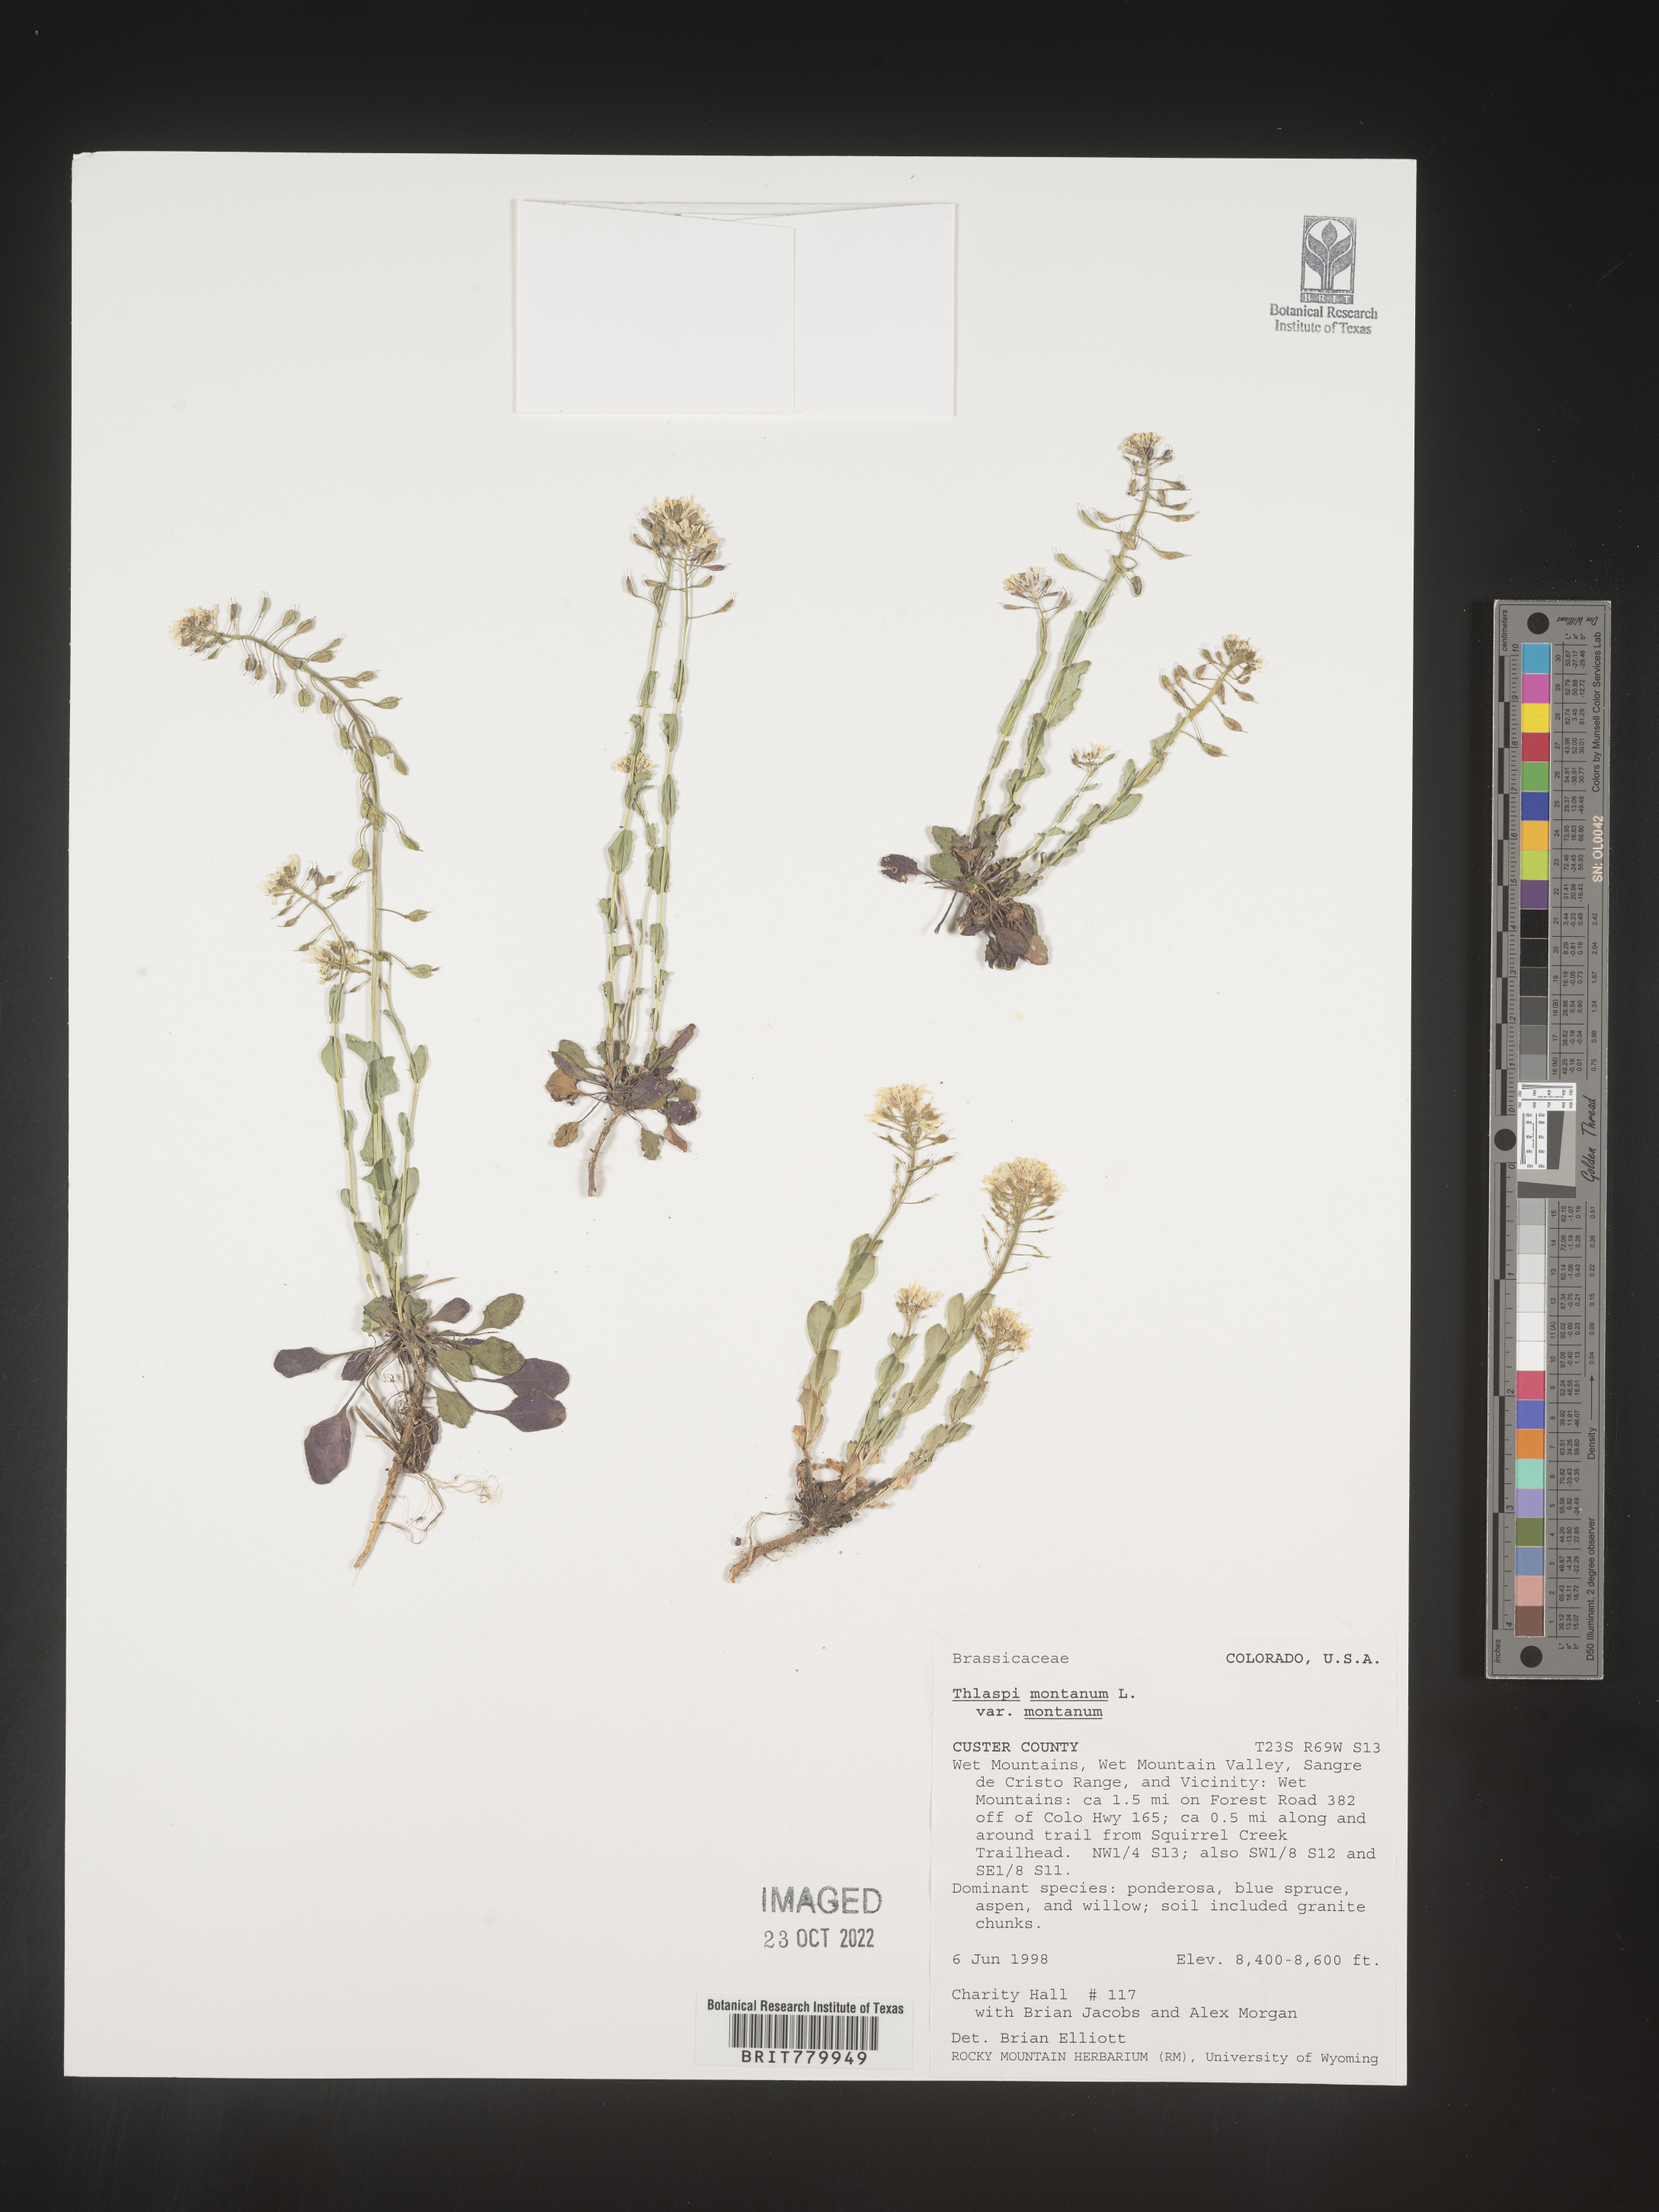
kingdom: Plantae
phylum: Tracheophyta
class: Magnoliopsida
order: Brassicales
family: Brassicaceae
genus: Thlaspi
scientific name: Thlaspi
